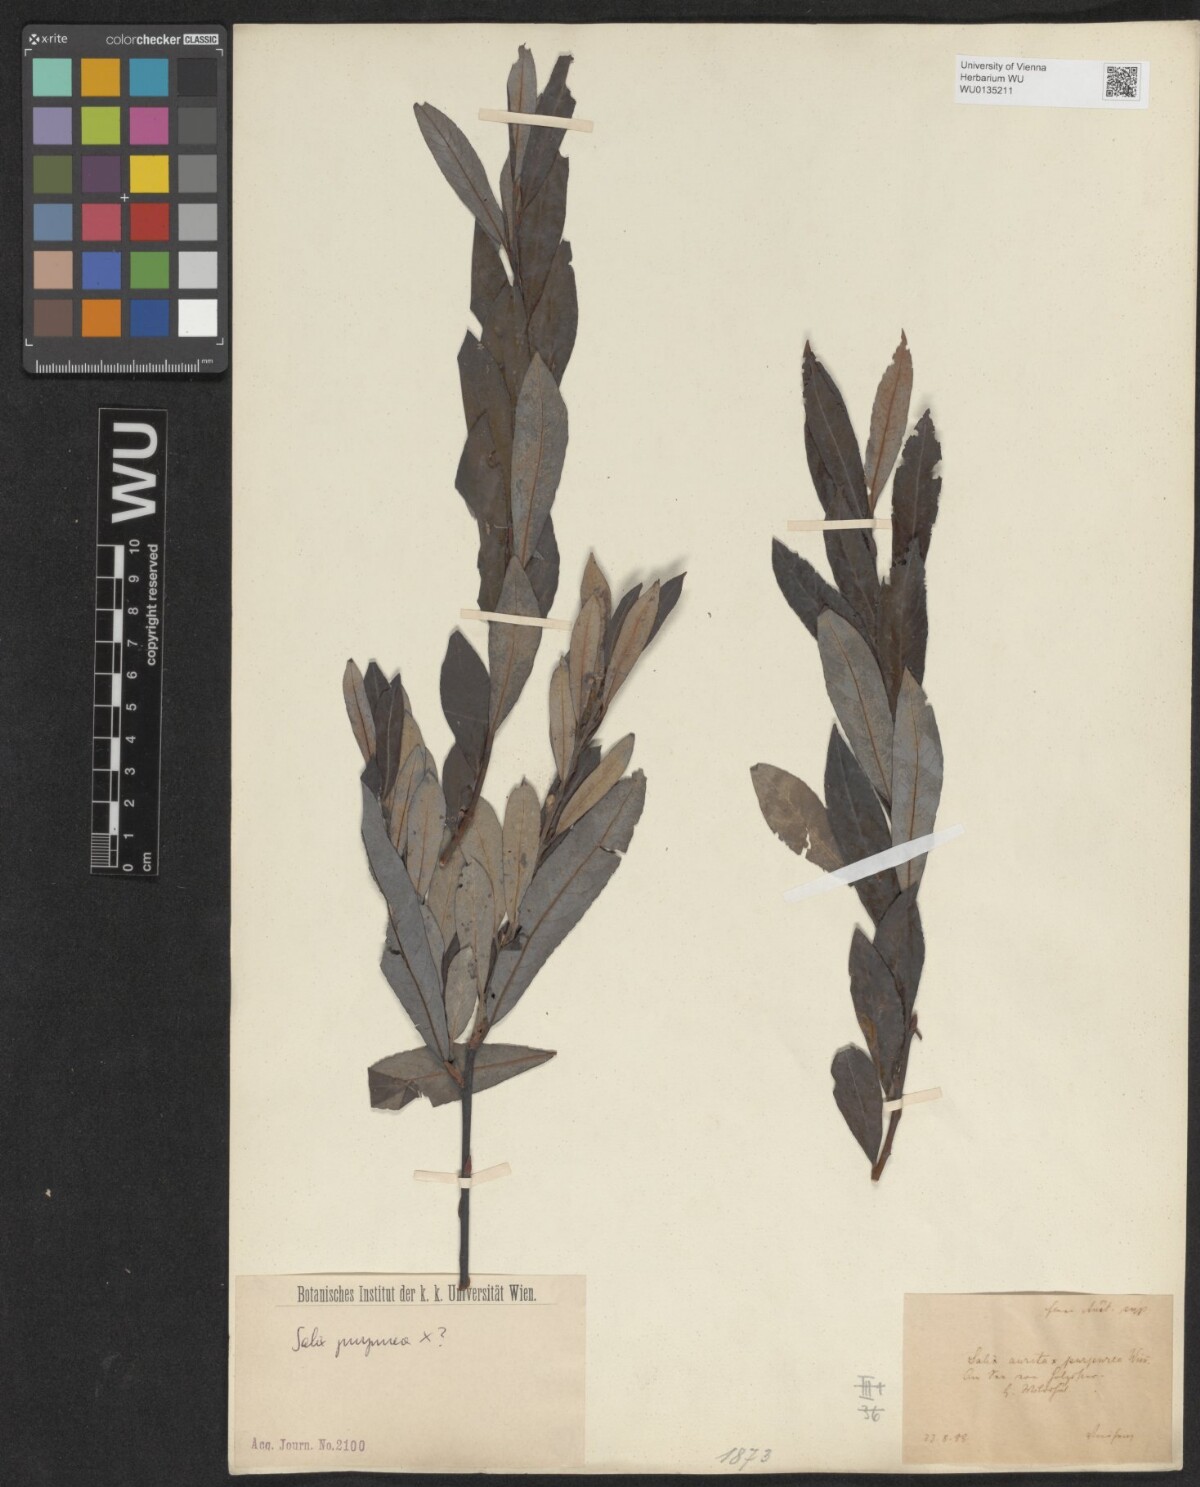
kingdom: Plantae
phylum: Tracheophyta
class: Magnoliopsida
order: Malpighiales
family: Salicaceae
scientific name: Salicaceae
